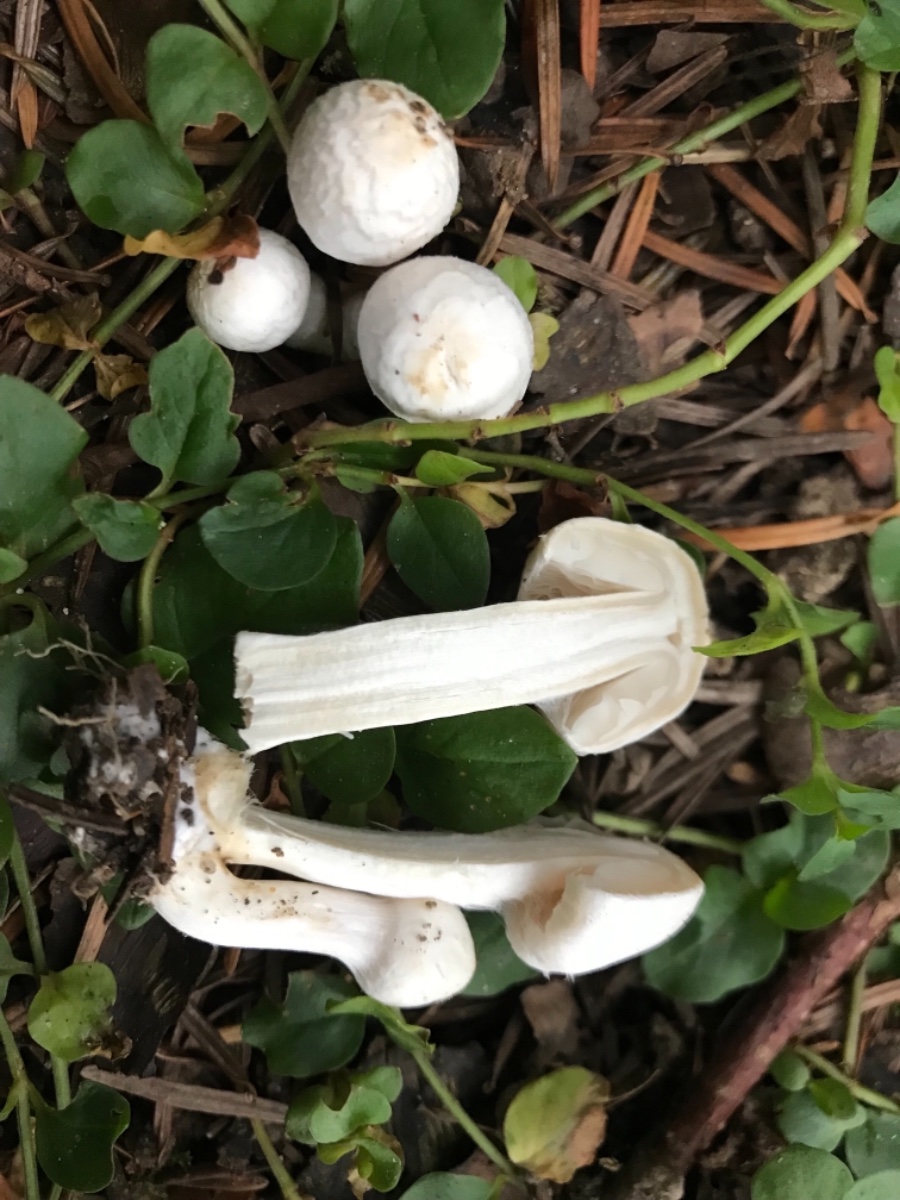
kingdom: Fungi
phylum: Basidiomycota
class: Agaricomycetes
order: Agaricales
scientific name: Agaricales
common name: champignonordenen
